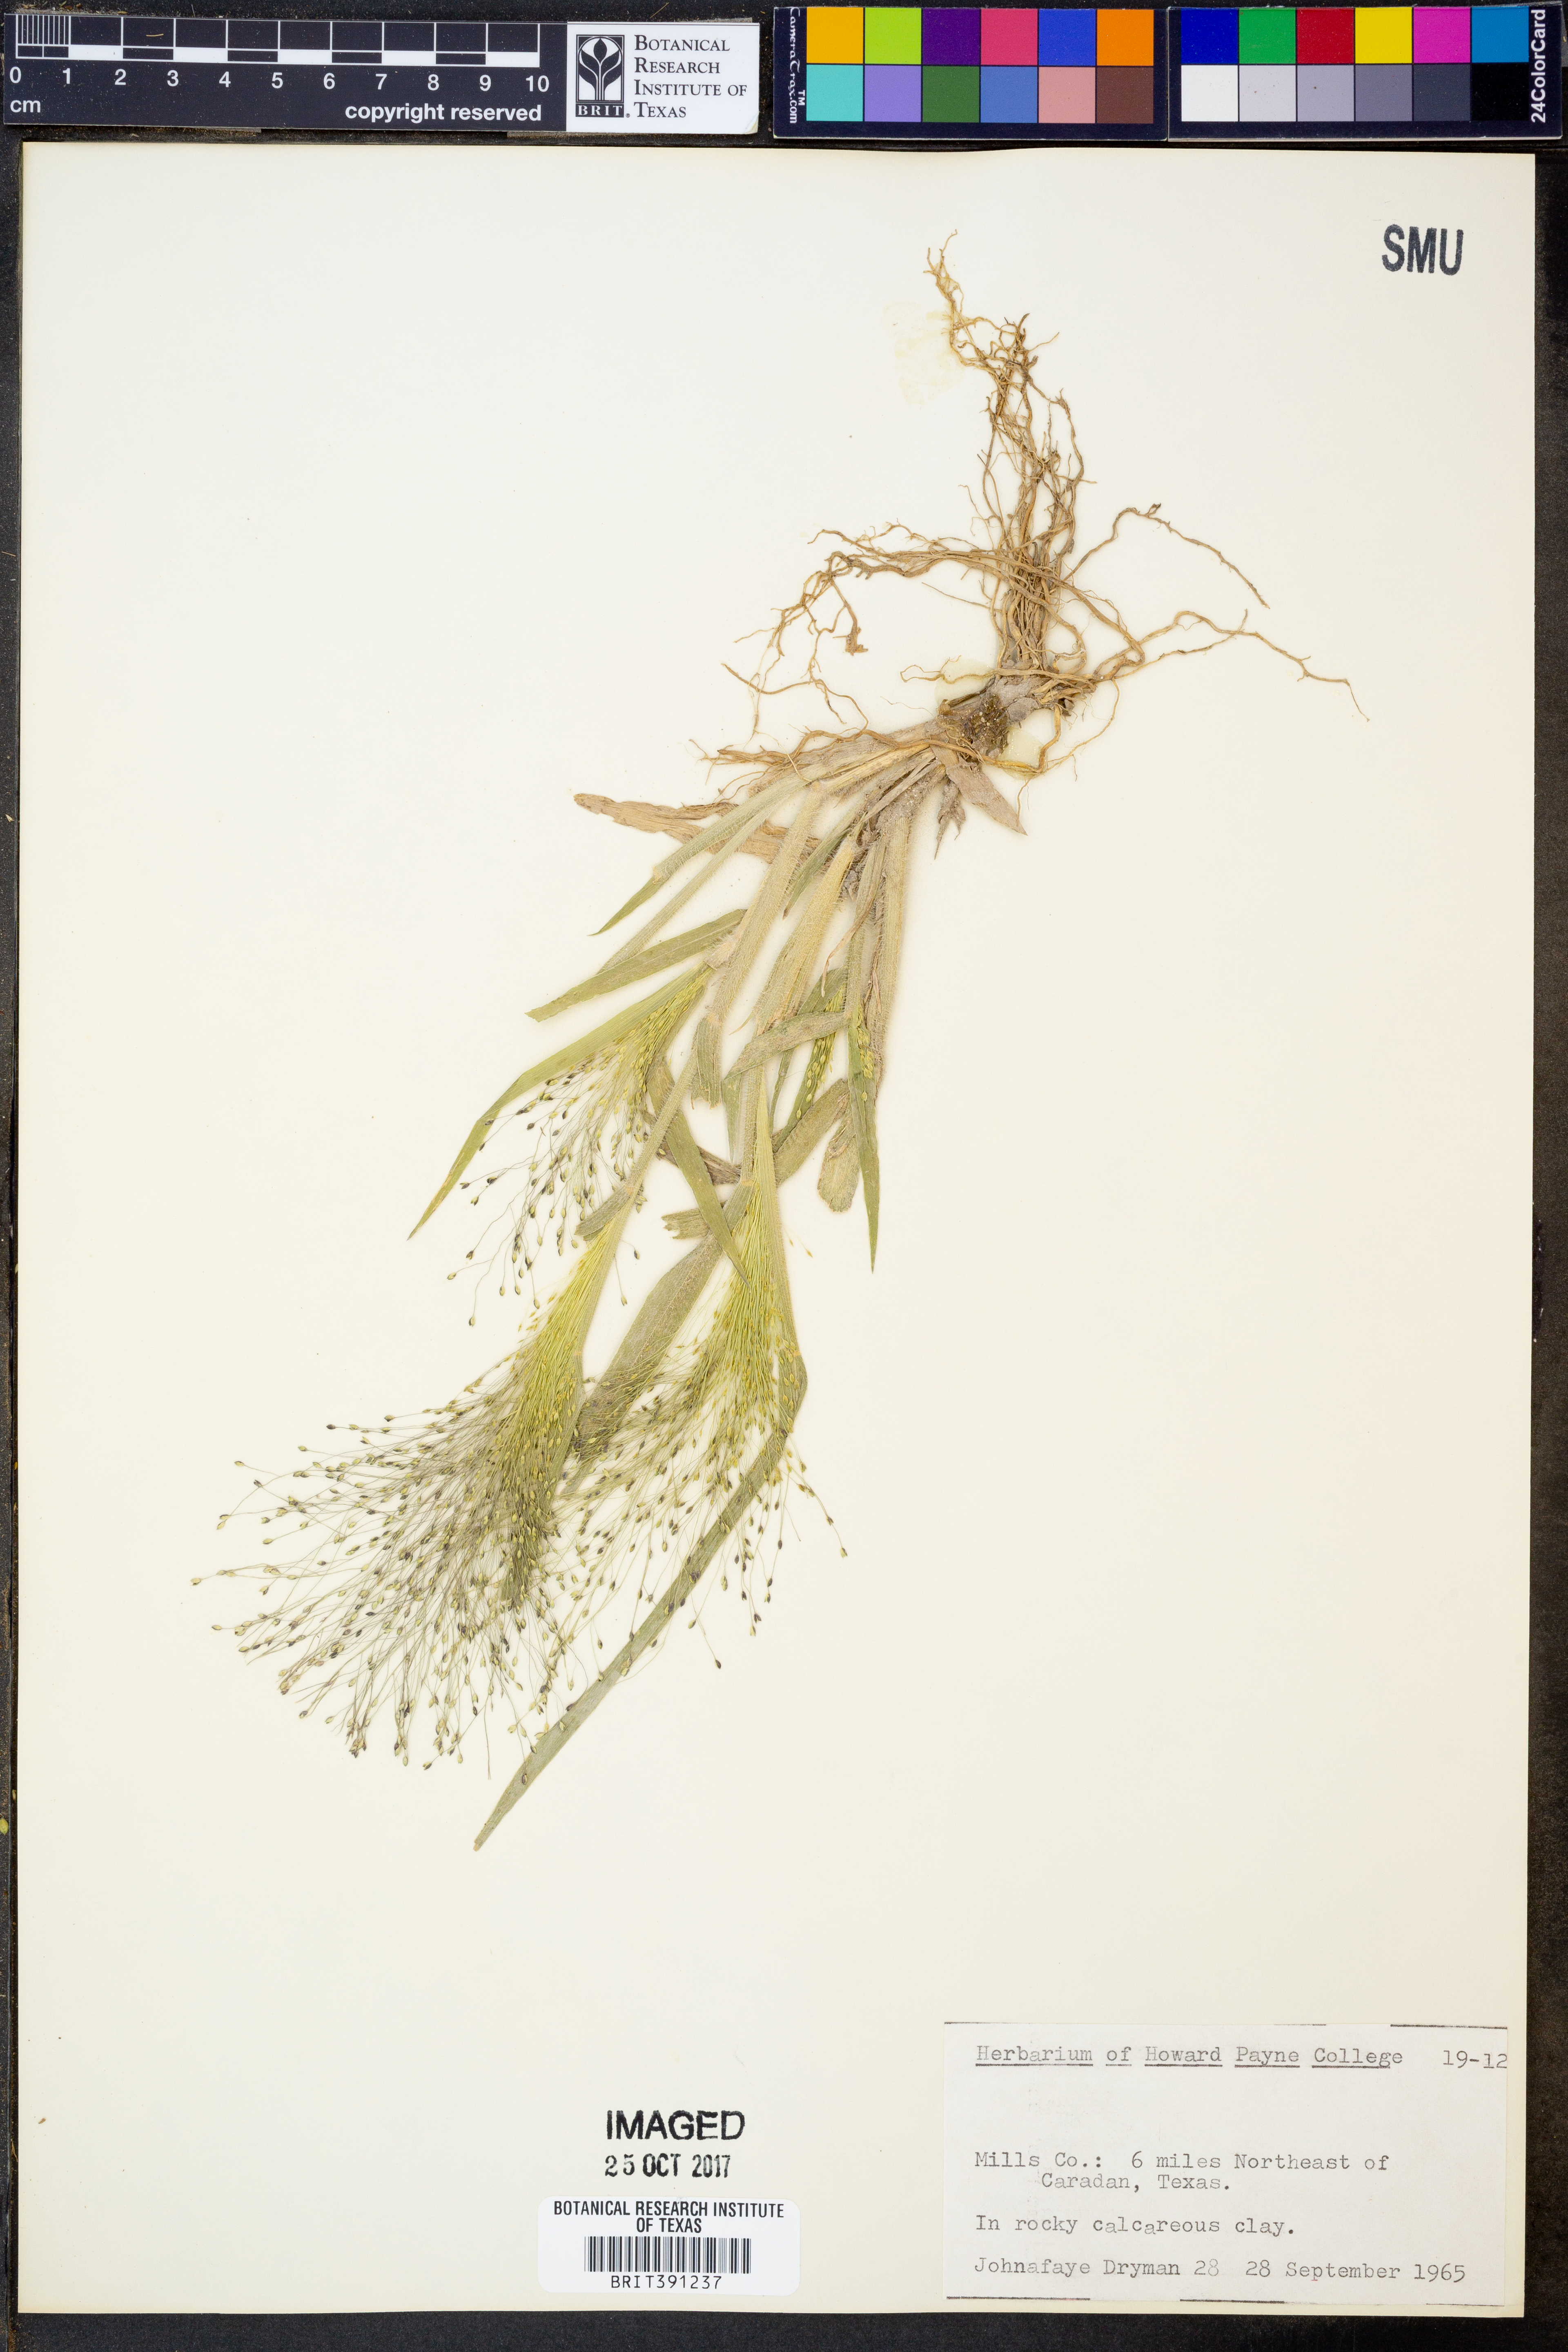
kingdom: Plantae
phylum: Tracheophyta
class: Liliopsida
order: Poales
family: Poaceae
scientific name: Poaceae
